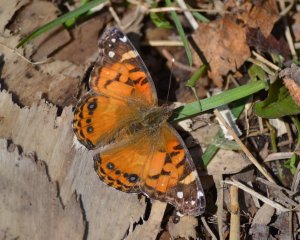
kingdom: Animalia
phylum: Arthropoda
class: Insecta
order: Lepidoptera
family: Nymphalidae
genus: Vanessa
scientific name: Vanessa virginiensis
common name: American Lady
